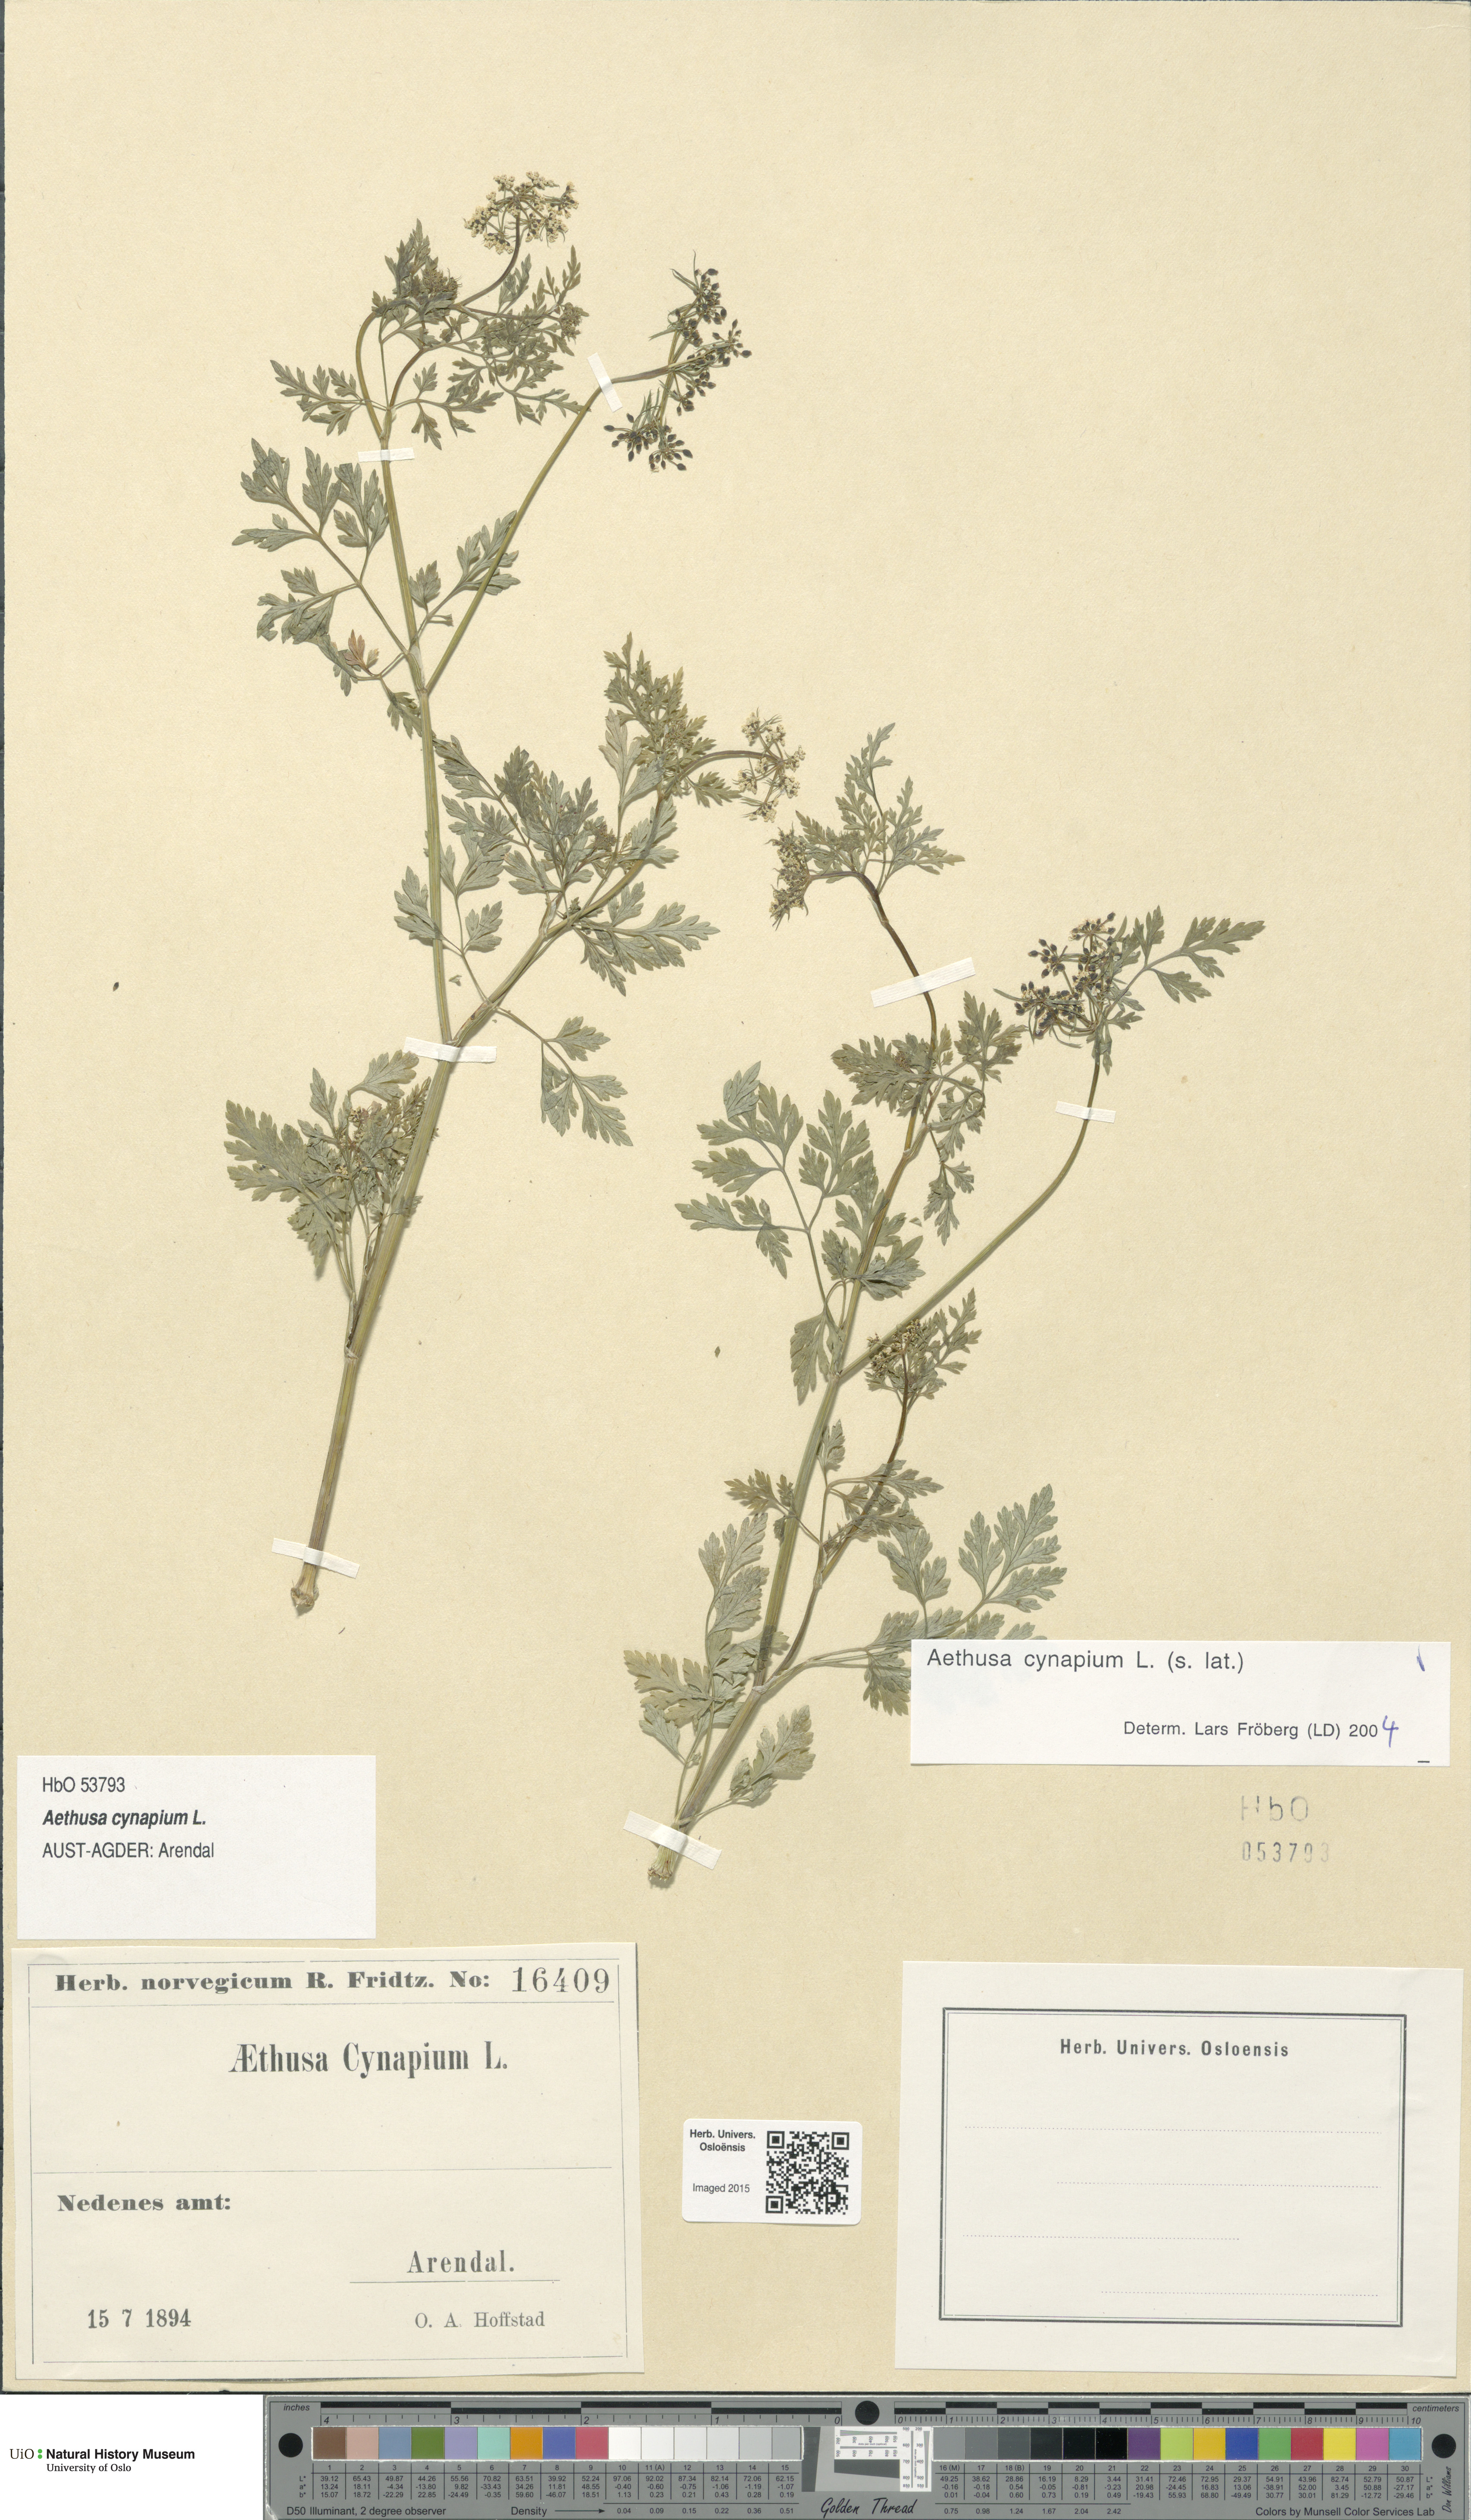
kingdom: Plantae
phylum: Tracheophyta
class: Magnoliopsida
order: Apiales
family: Apiaceae
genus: Aethusa
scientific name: Aethusa cynapium
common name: Fool's parsley
